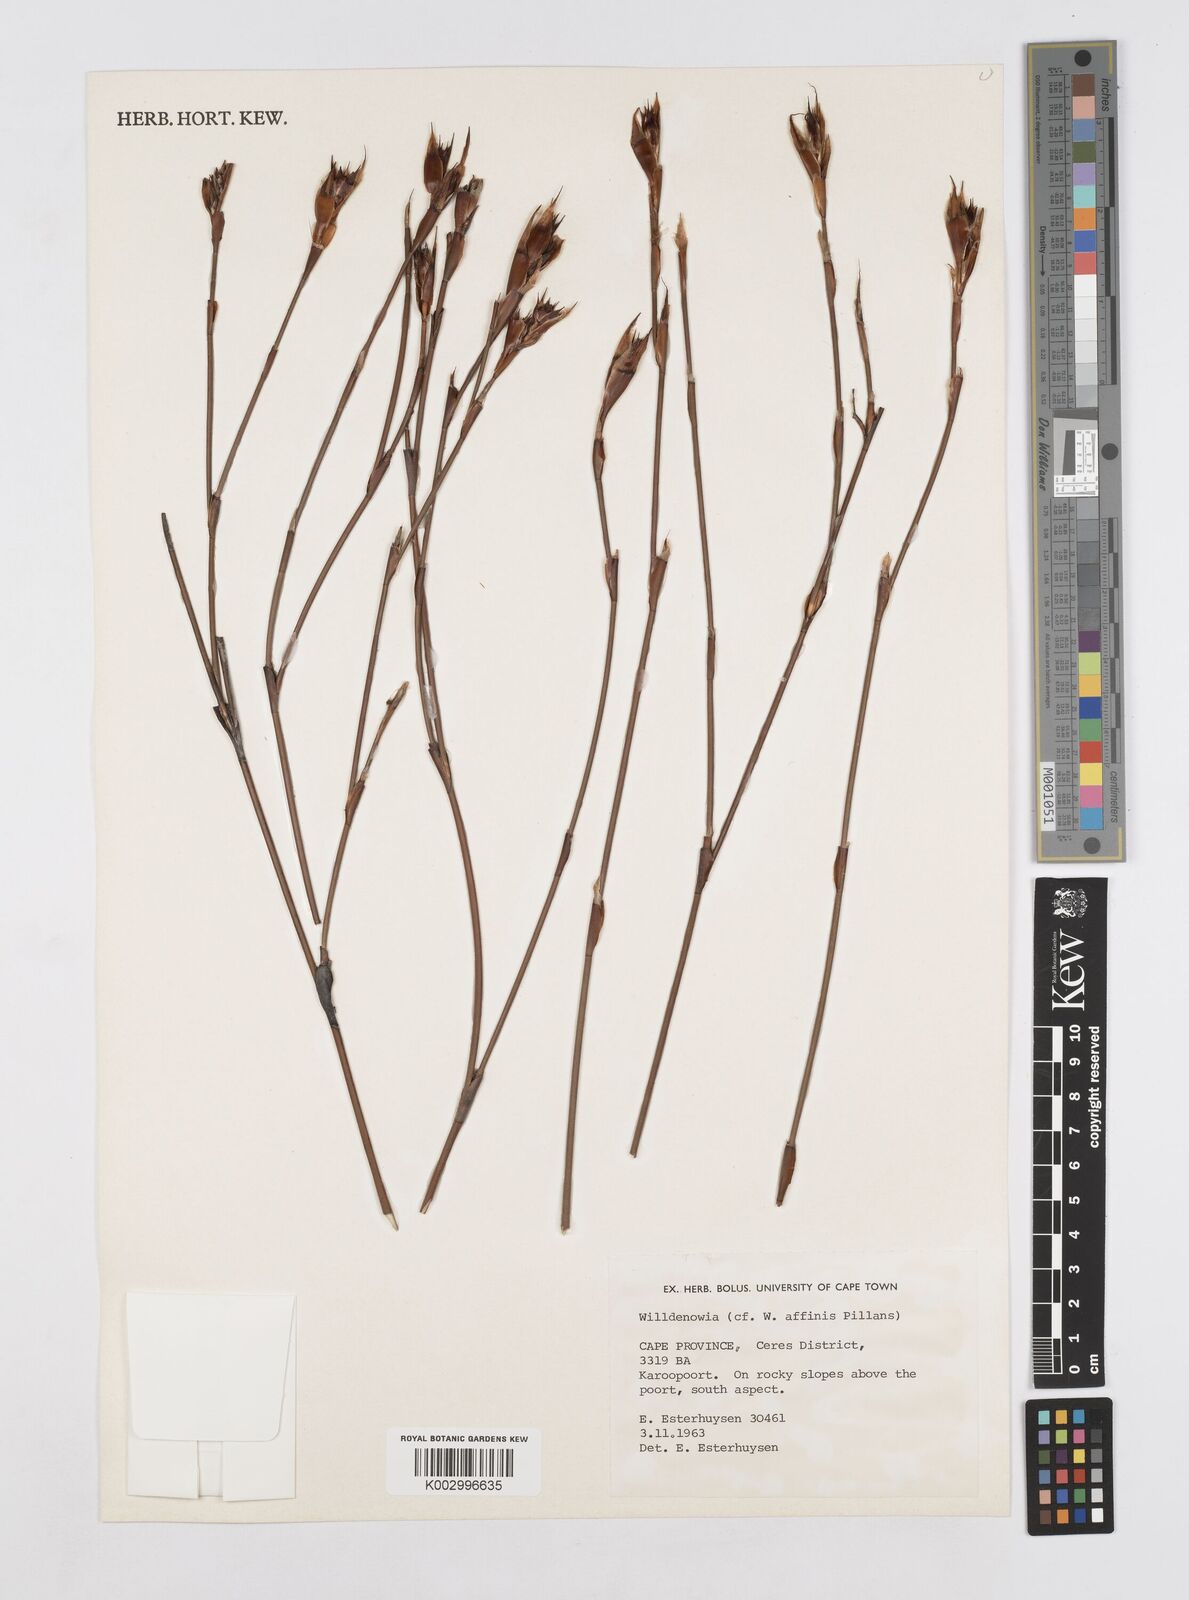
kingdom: Plantae
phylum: Tracheophyta
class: Liliopsida
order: Poales
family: Restionaceae
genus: Willdenowia
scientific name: Willdenowia affinis
